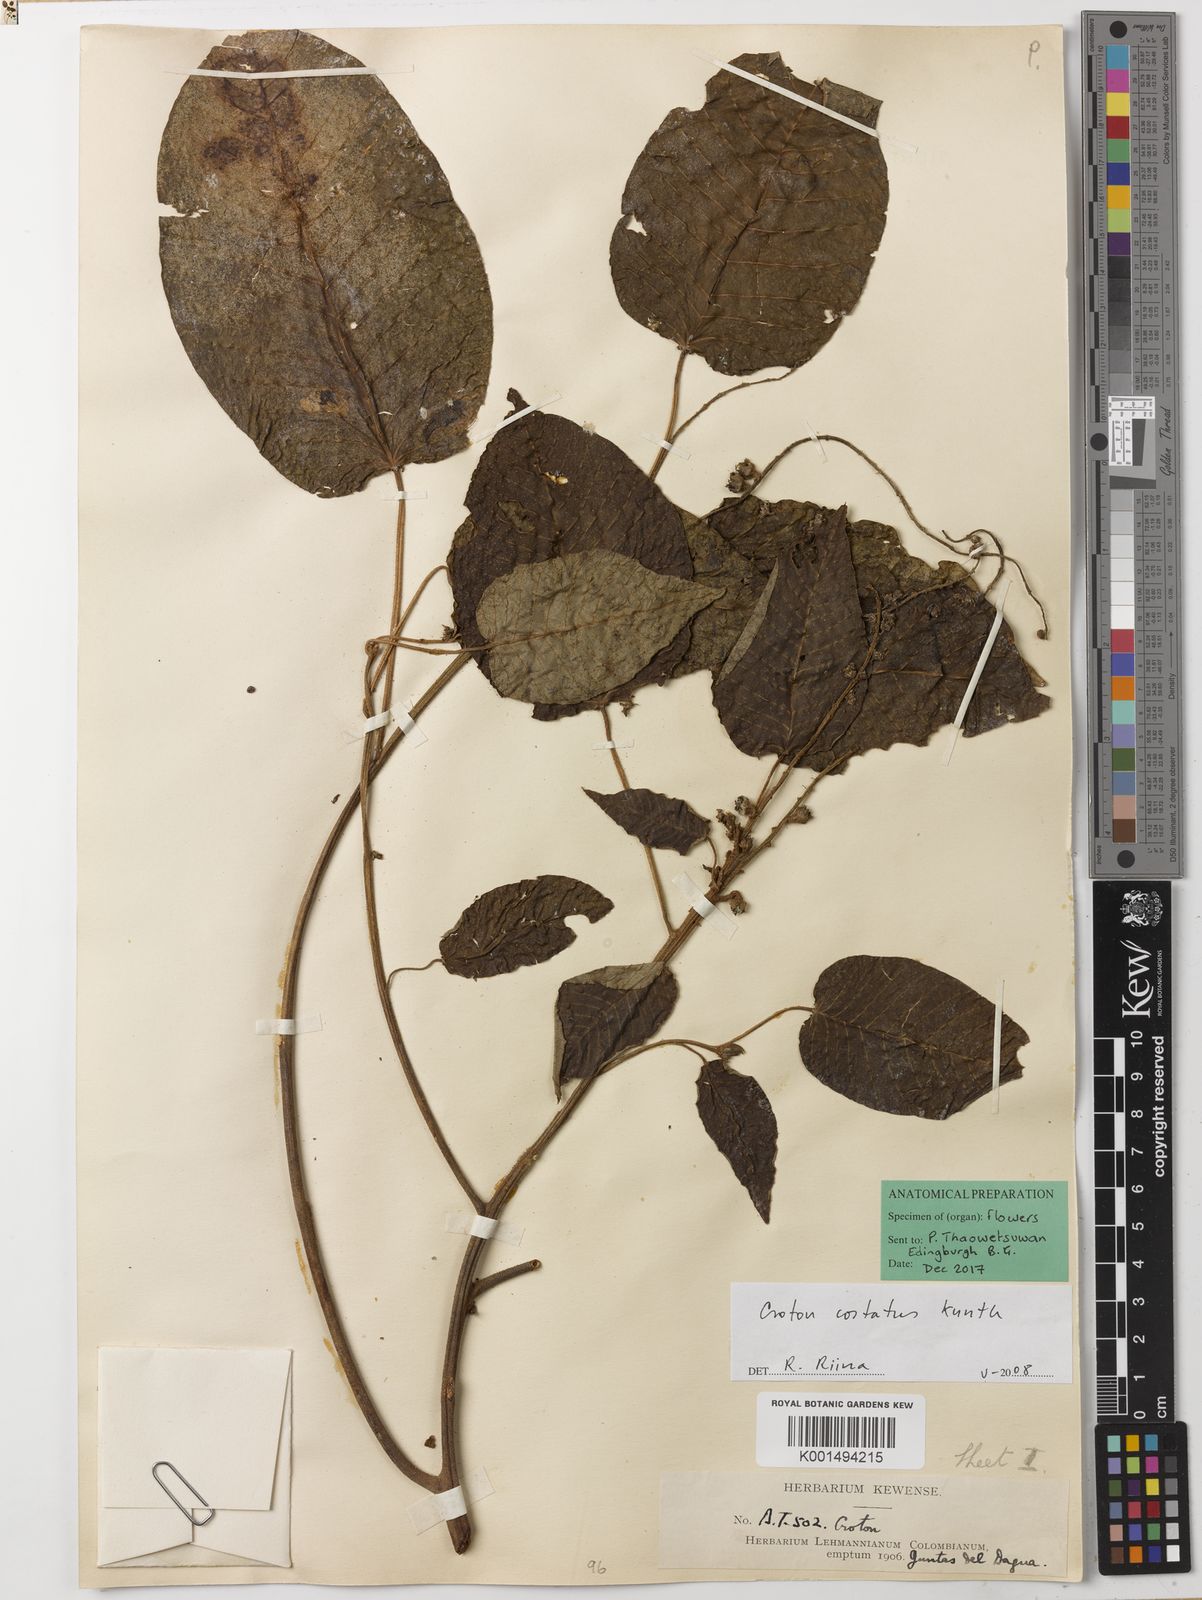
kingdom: Plantae
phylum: Tracheophyta
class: Magnoliopsida
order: Malpighiales
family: Euphorbiaceae
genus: Croton
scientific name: Croton costatus
